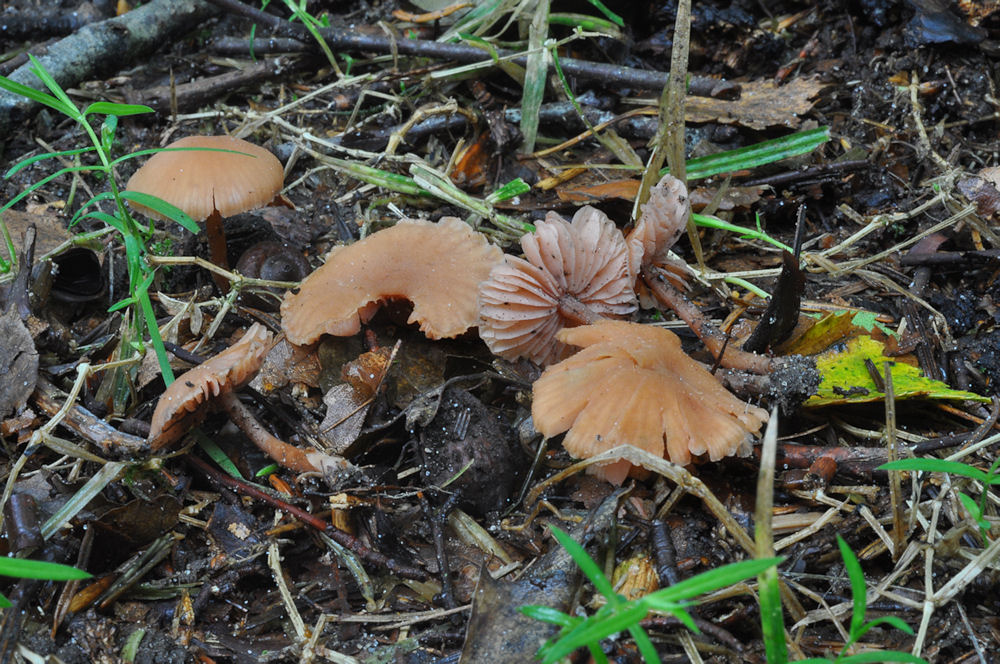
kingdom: Fungi
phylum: Basidiomycota
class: Agaricomycetes
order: Agaricales
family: Hydnangiaceae
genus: Laccaria
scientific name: Laccaria laccata
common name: rød ametysthat
